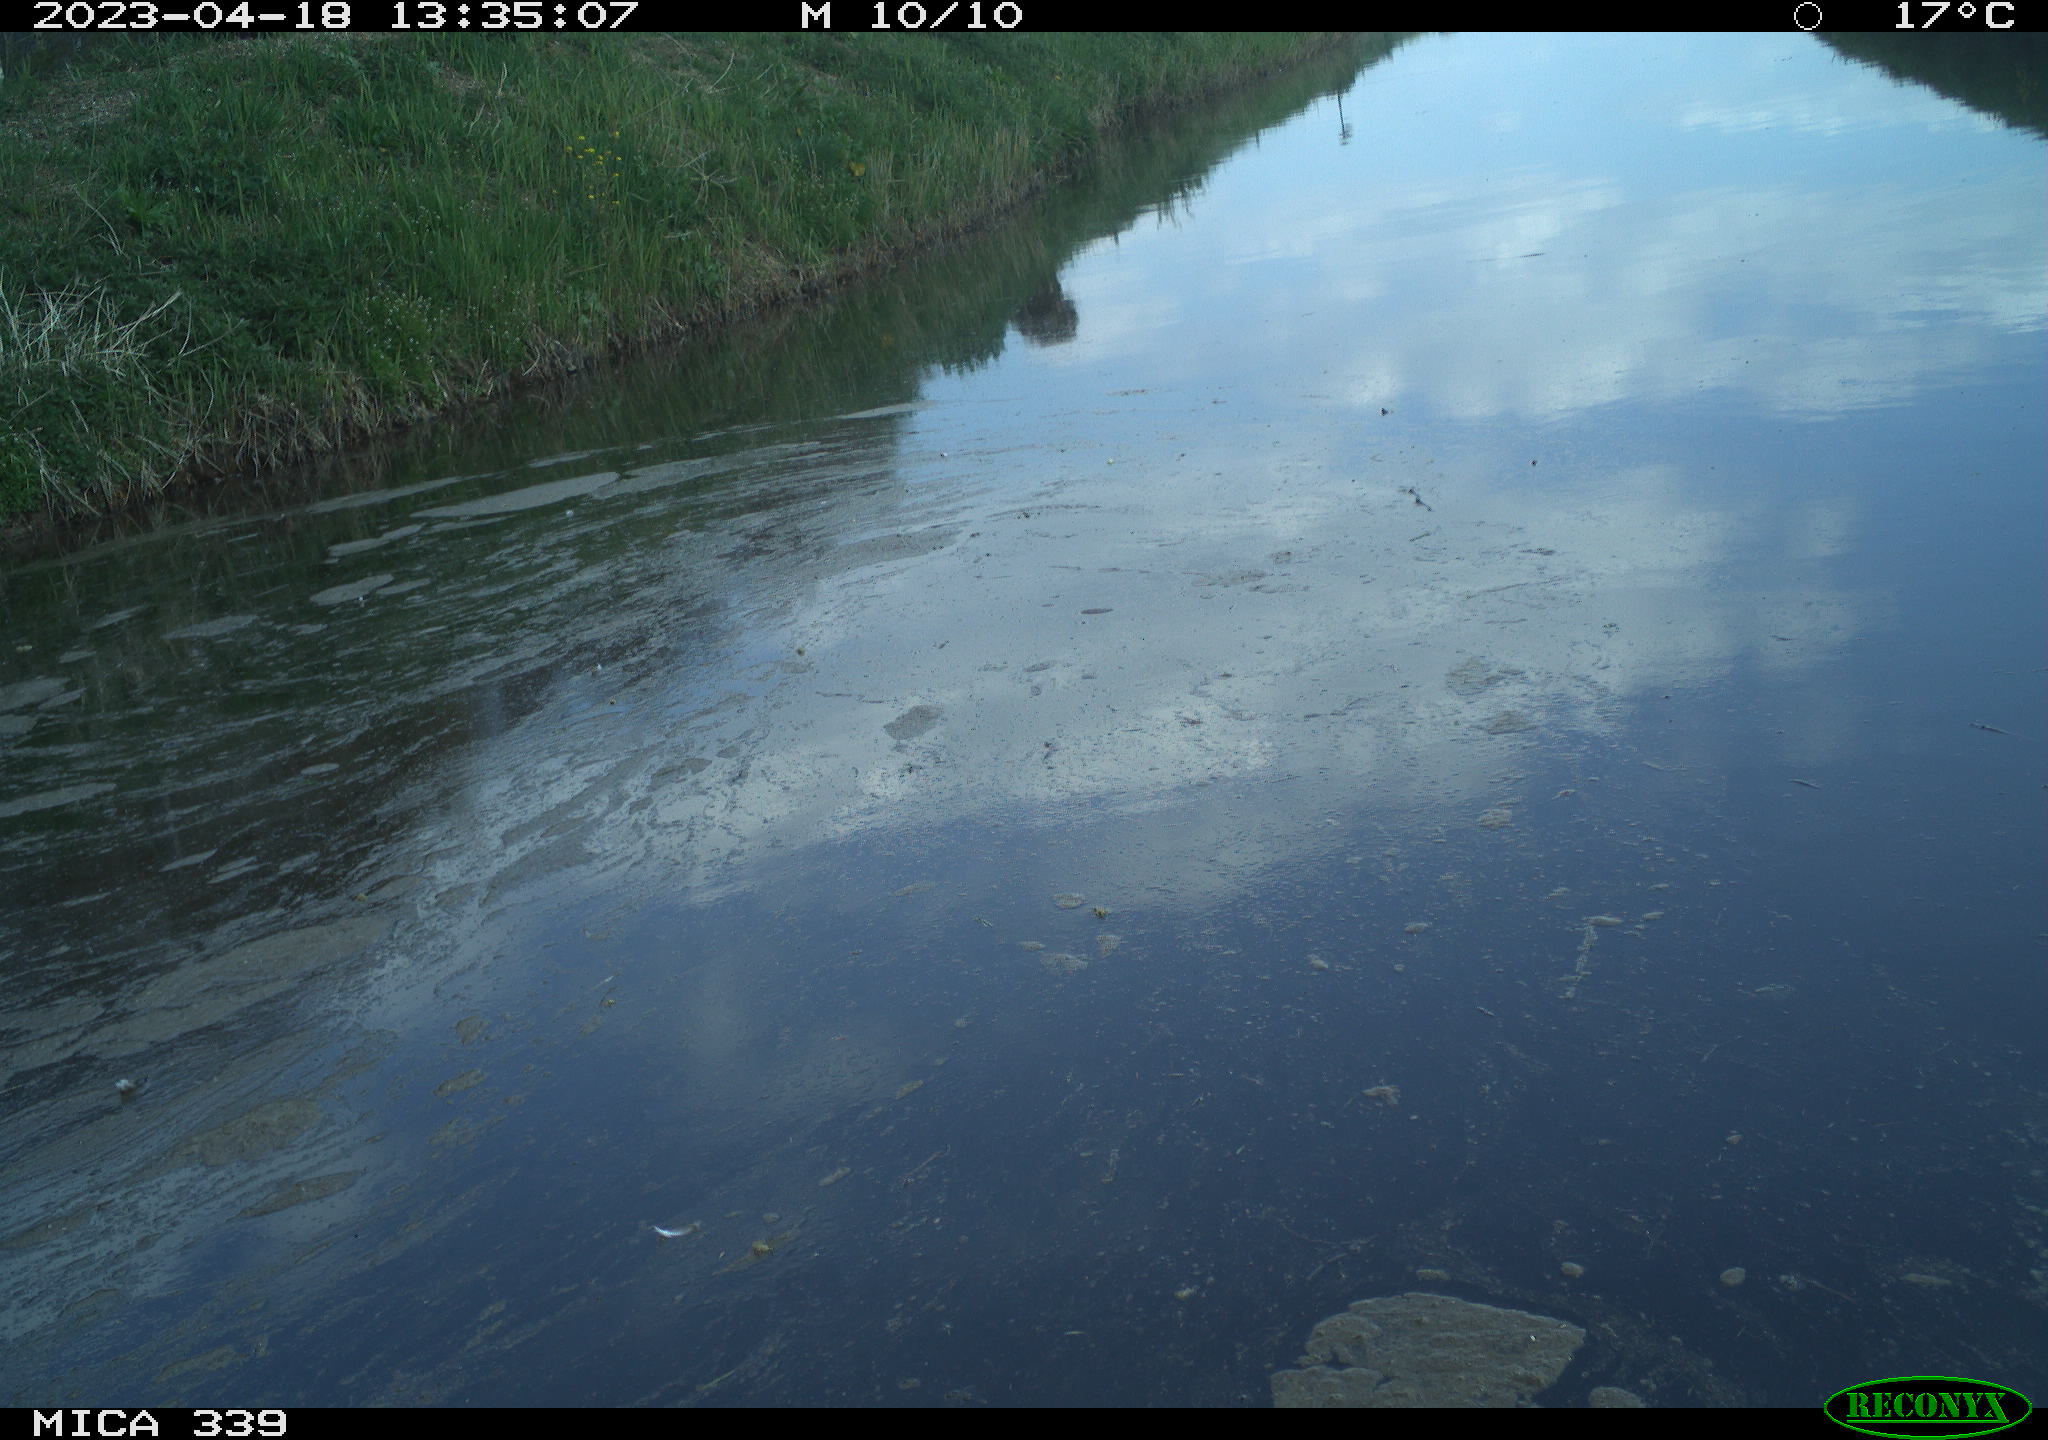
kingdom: Animalia
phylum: Chordata
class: Aves
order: Pelecaniformes
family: Ardeidae
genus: Ardea
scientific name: Ardea cinerea
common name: Grey heron
